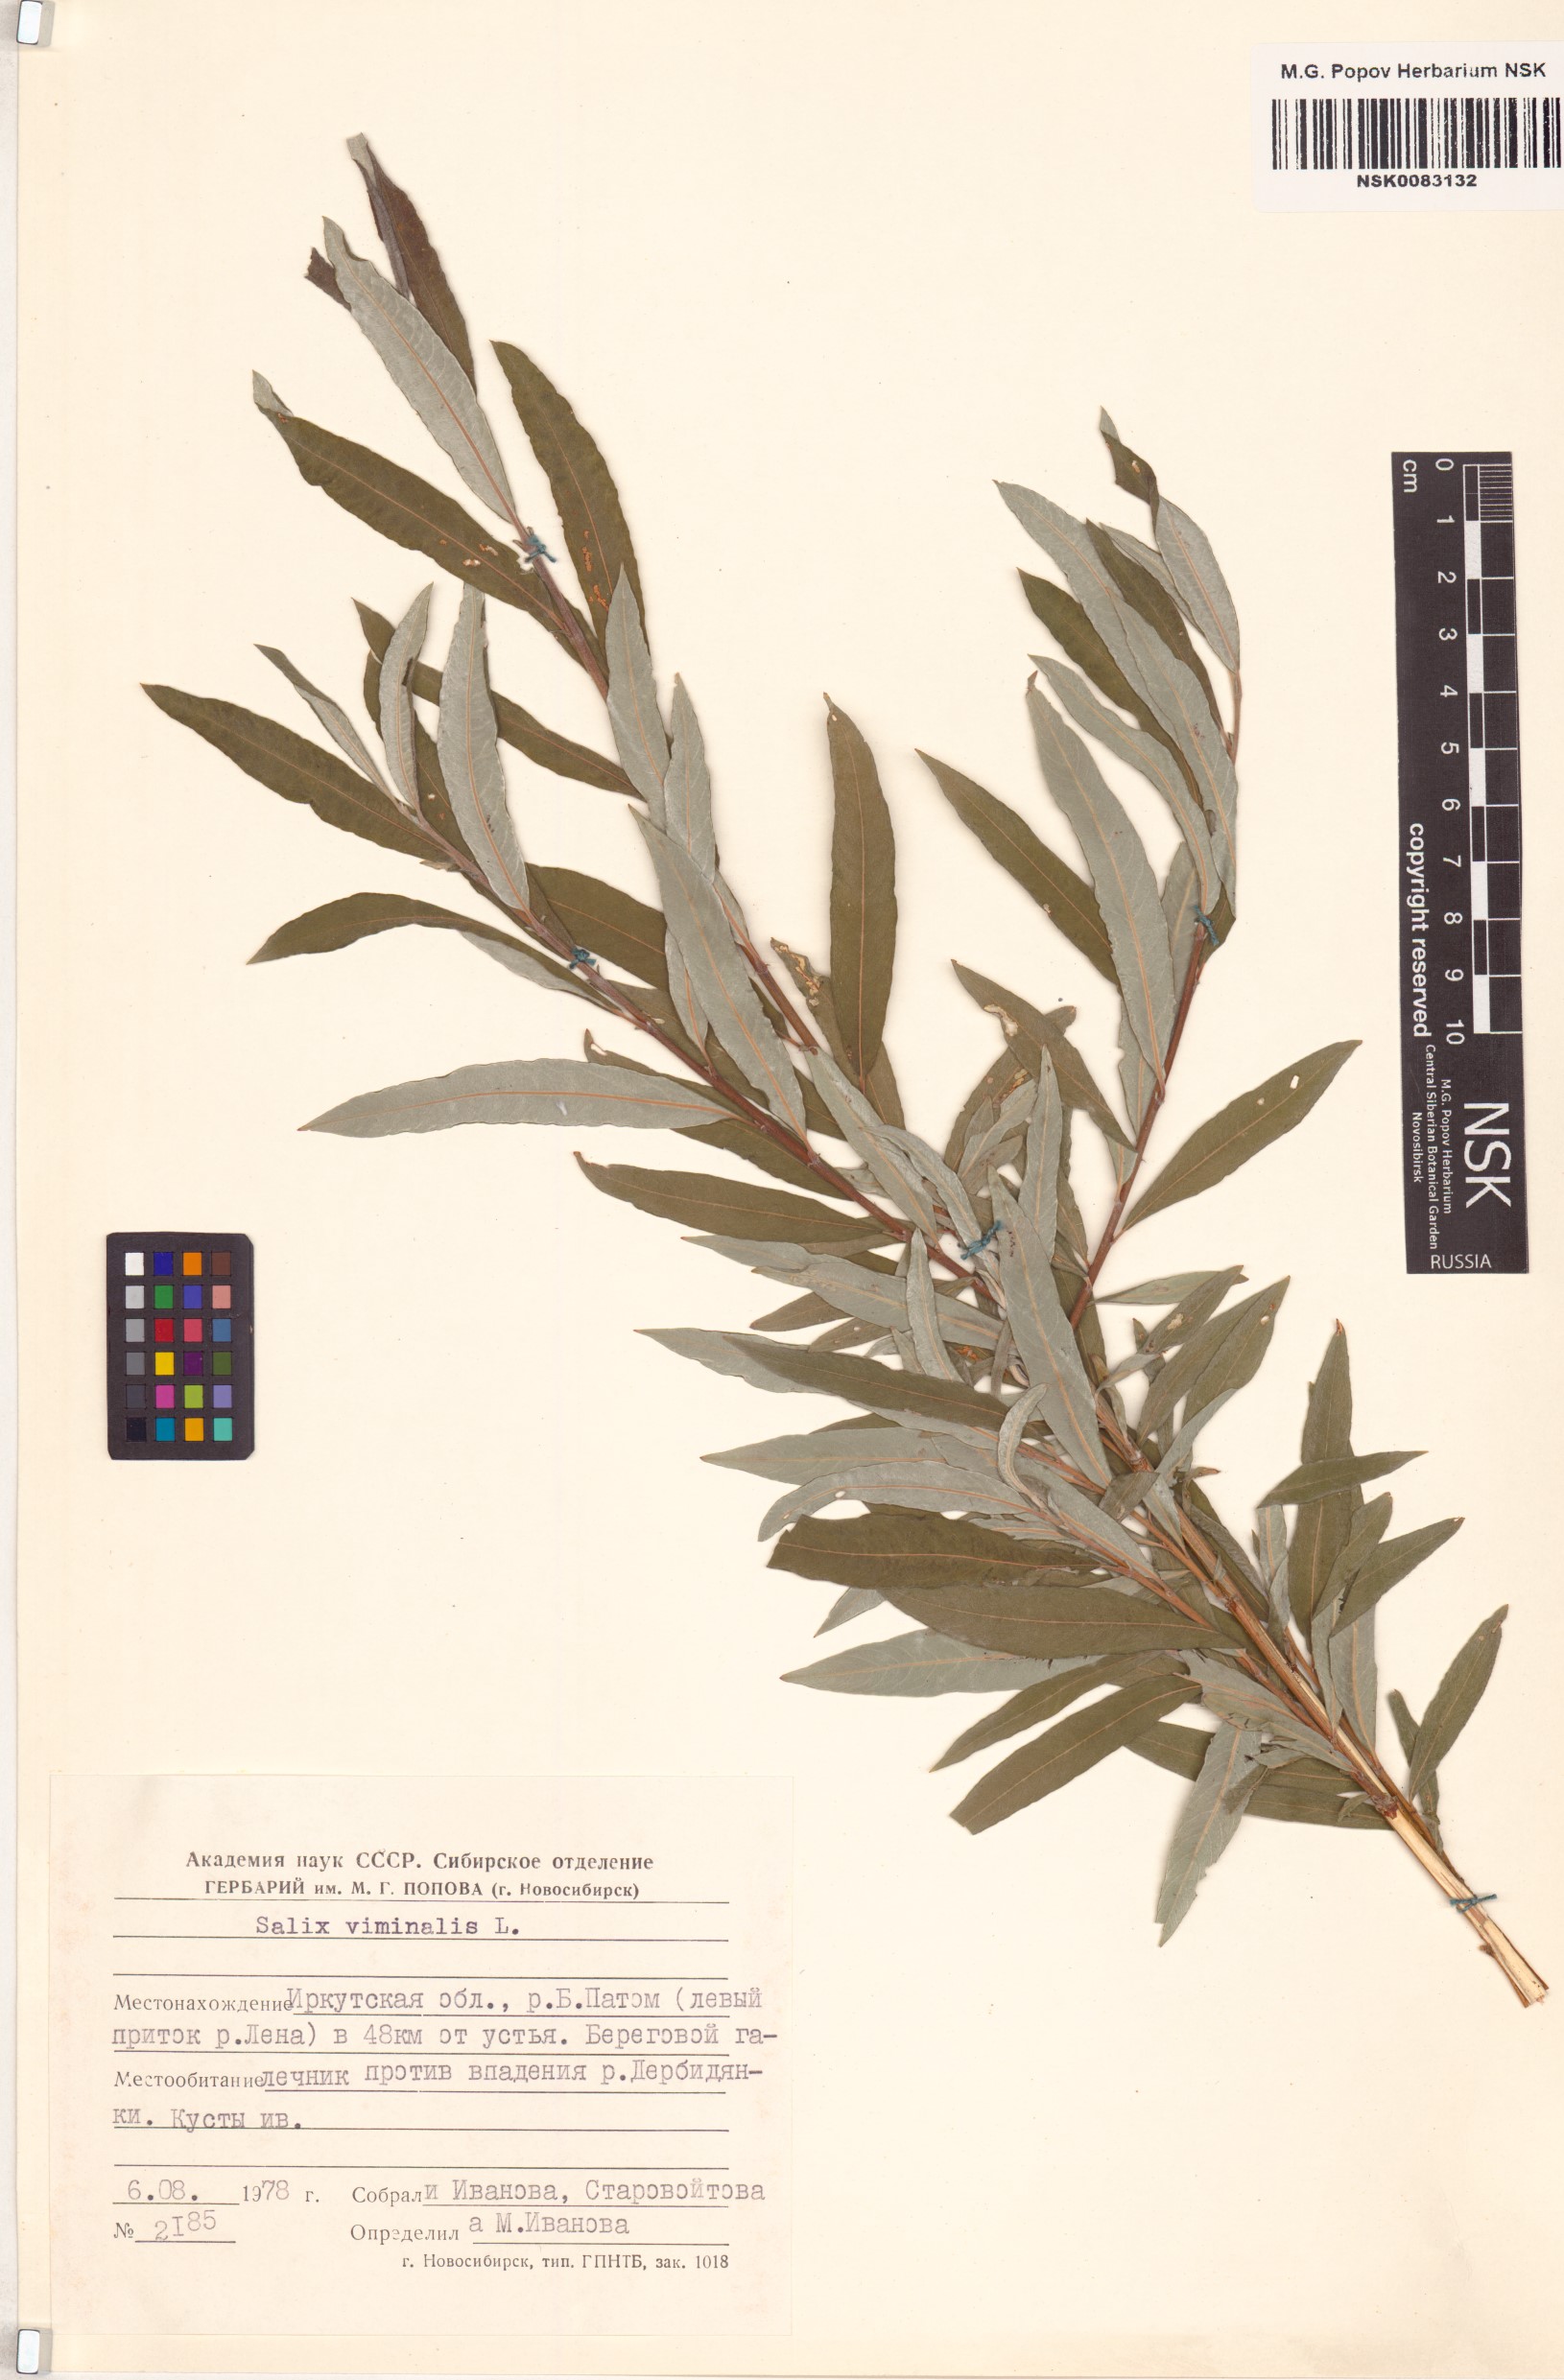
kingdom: Plantae
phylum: Tracheophyta
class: Magnoliopsida
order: Malpighiales
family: Salicaceae
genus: Salix
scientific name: Salix viminalis
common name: Osier
